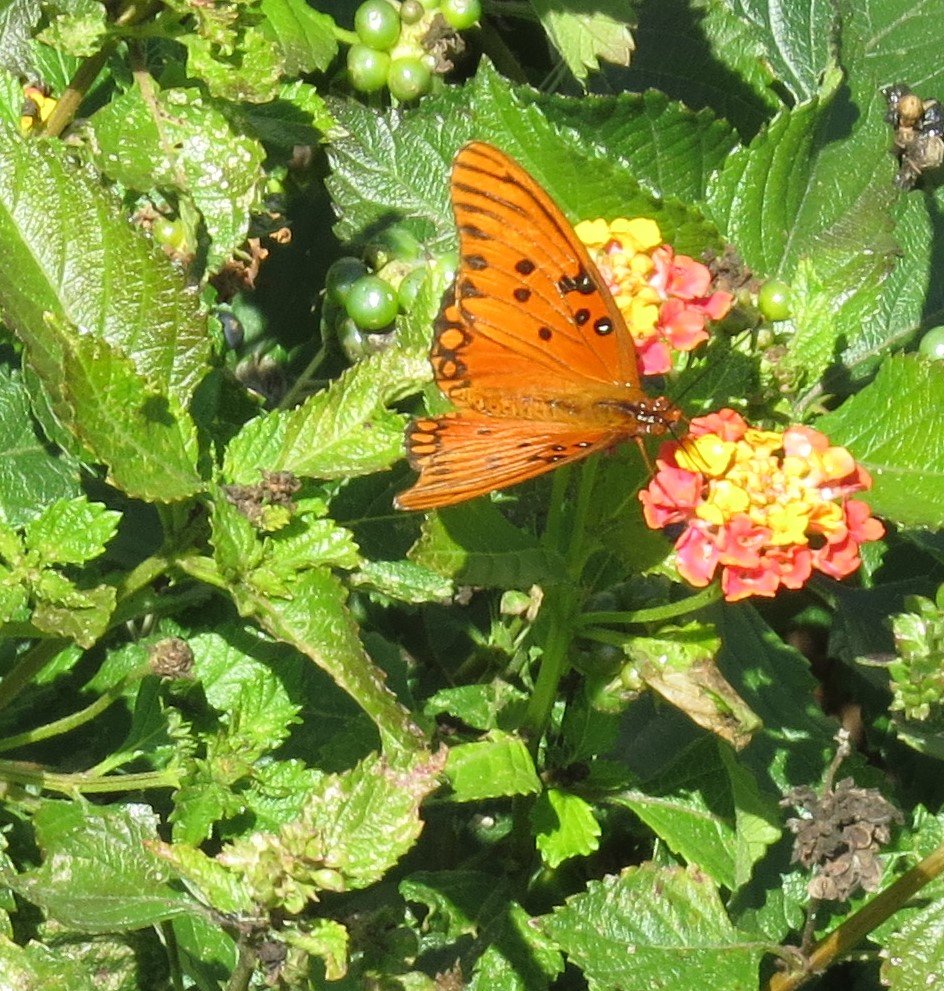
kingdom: Animalia
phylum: Arthropoda
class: Insecta
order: Lepidoptera
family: Nymphalidae
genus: Dione
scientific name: Dione vanillae
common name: Gulf Fritillary
